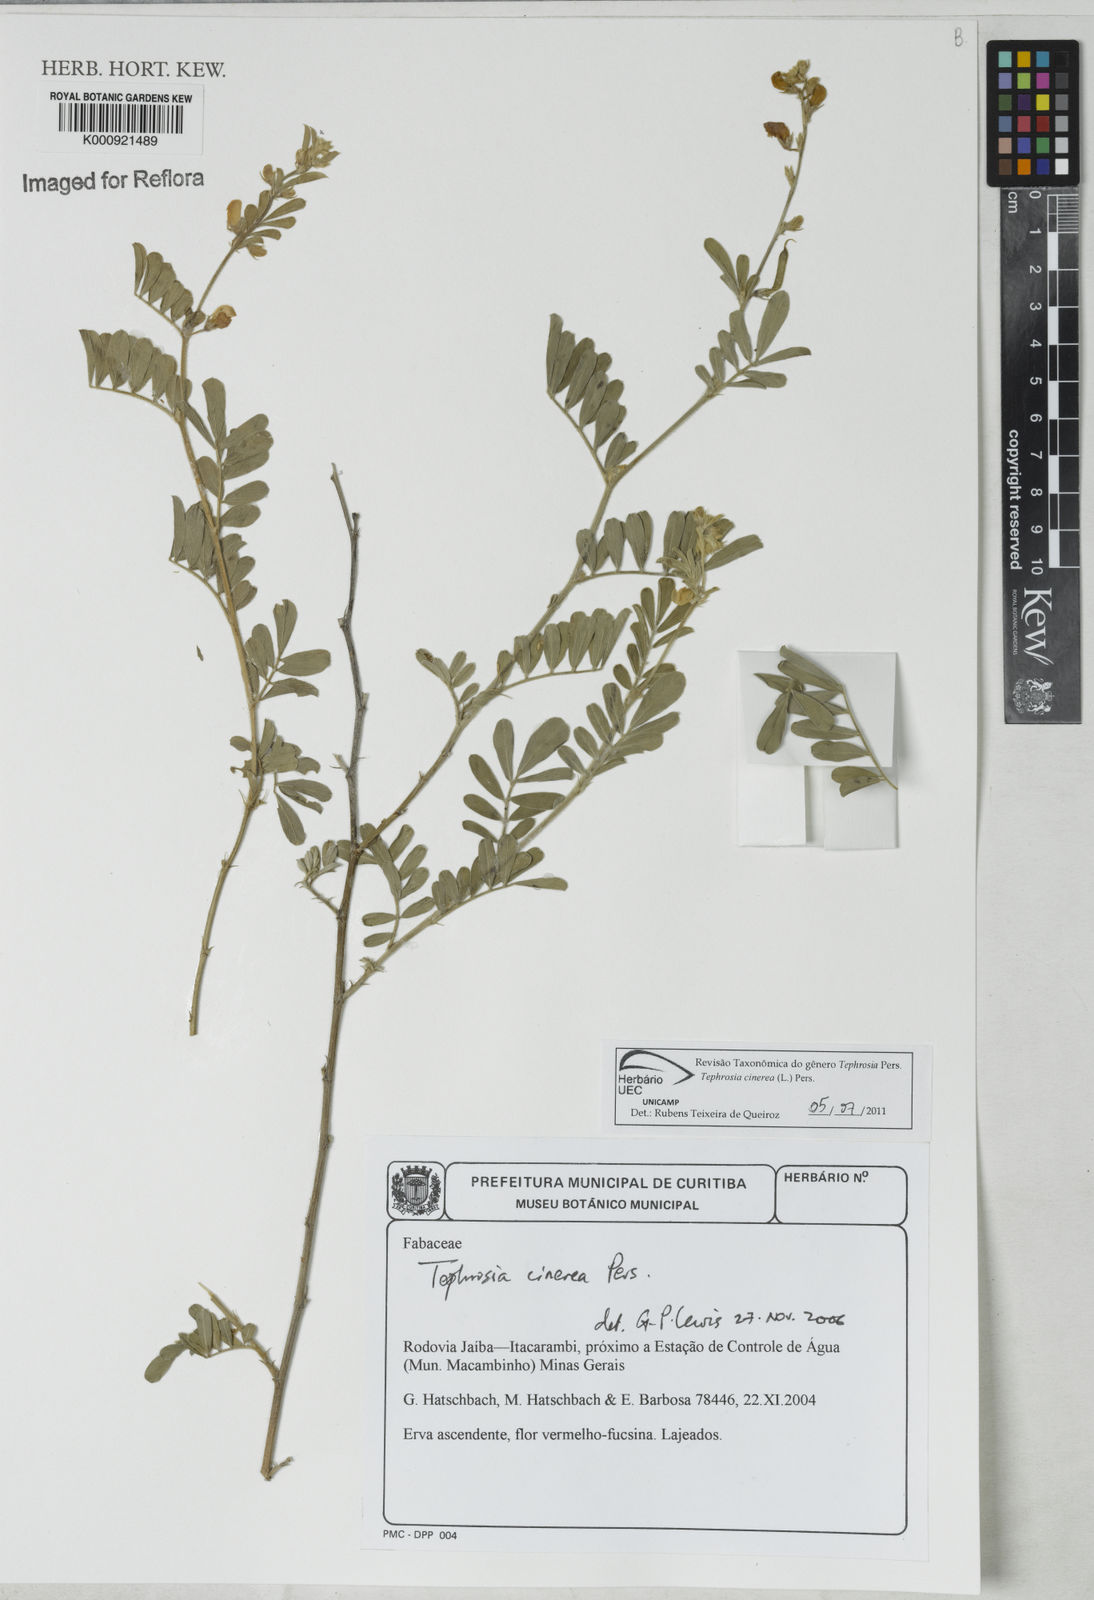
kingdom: Plantae
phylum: Tracheophyta
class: Magnoliopsida
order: Fabales
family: Fabaceae
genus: Tephrosia
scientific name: Tephrosia cinerea
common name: Ashen hoarypea
